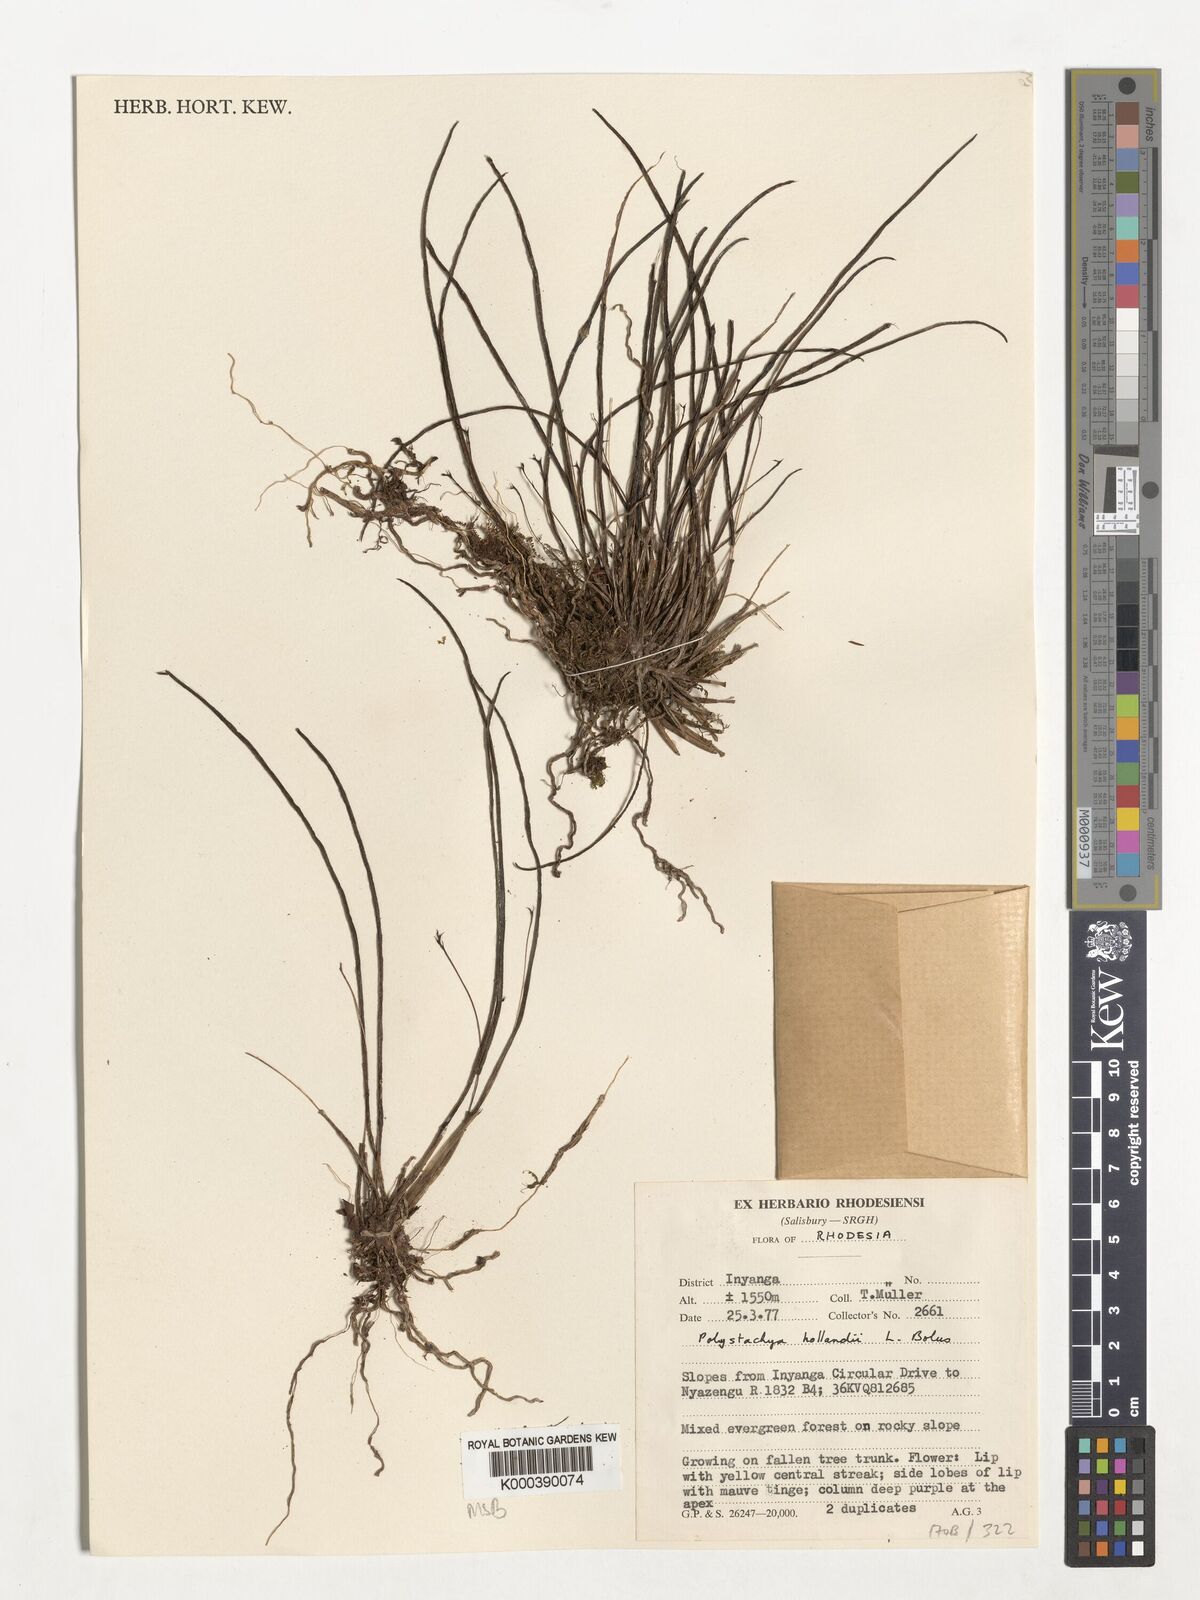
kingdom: Plantae
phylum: Tracheophyta
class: Liliopsida
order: Asparagales
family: Orchidaceae
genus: Polystachya
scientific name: Polystachya caespitifica
